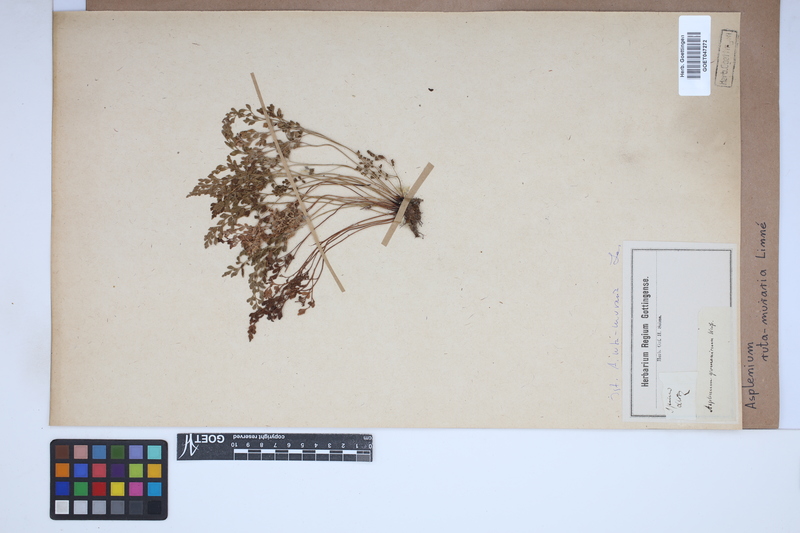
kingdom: Plantae
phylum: Tracheophyta
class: Polypodiopsida
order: Polypodiales
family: Aspleniaceae
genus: Asplenium
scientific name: Asplenium ruta-muraria
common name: Wall-rue
